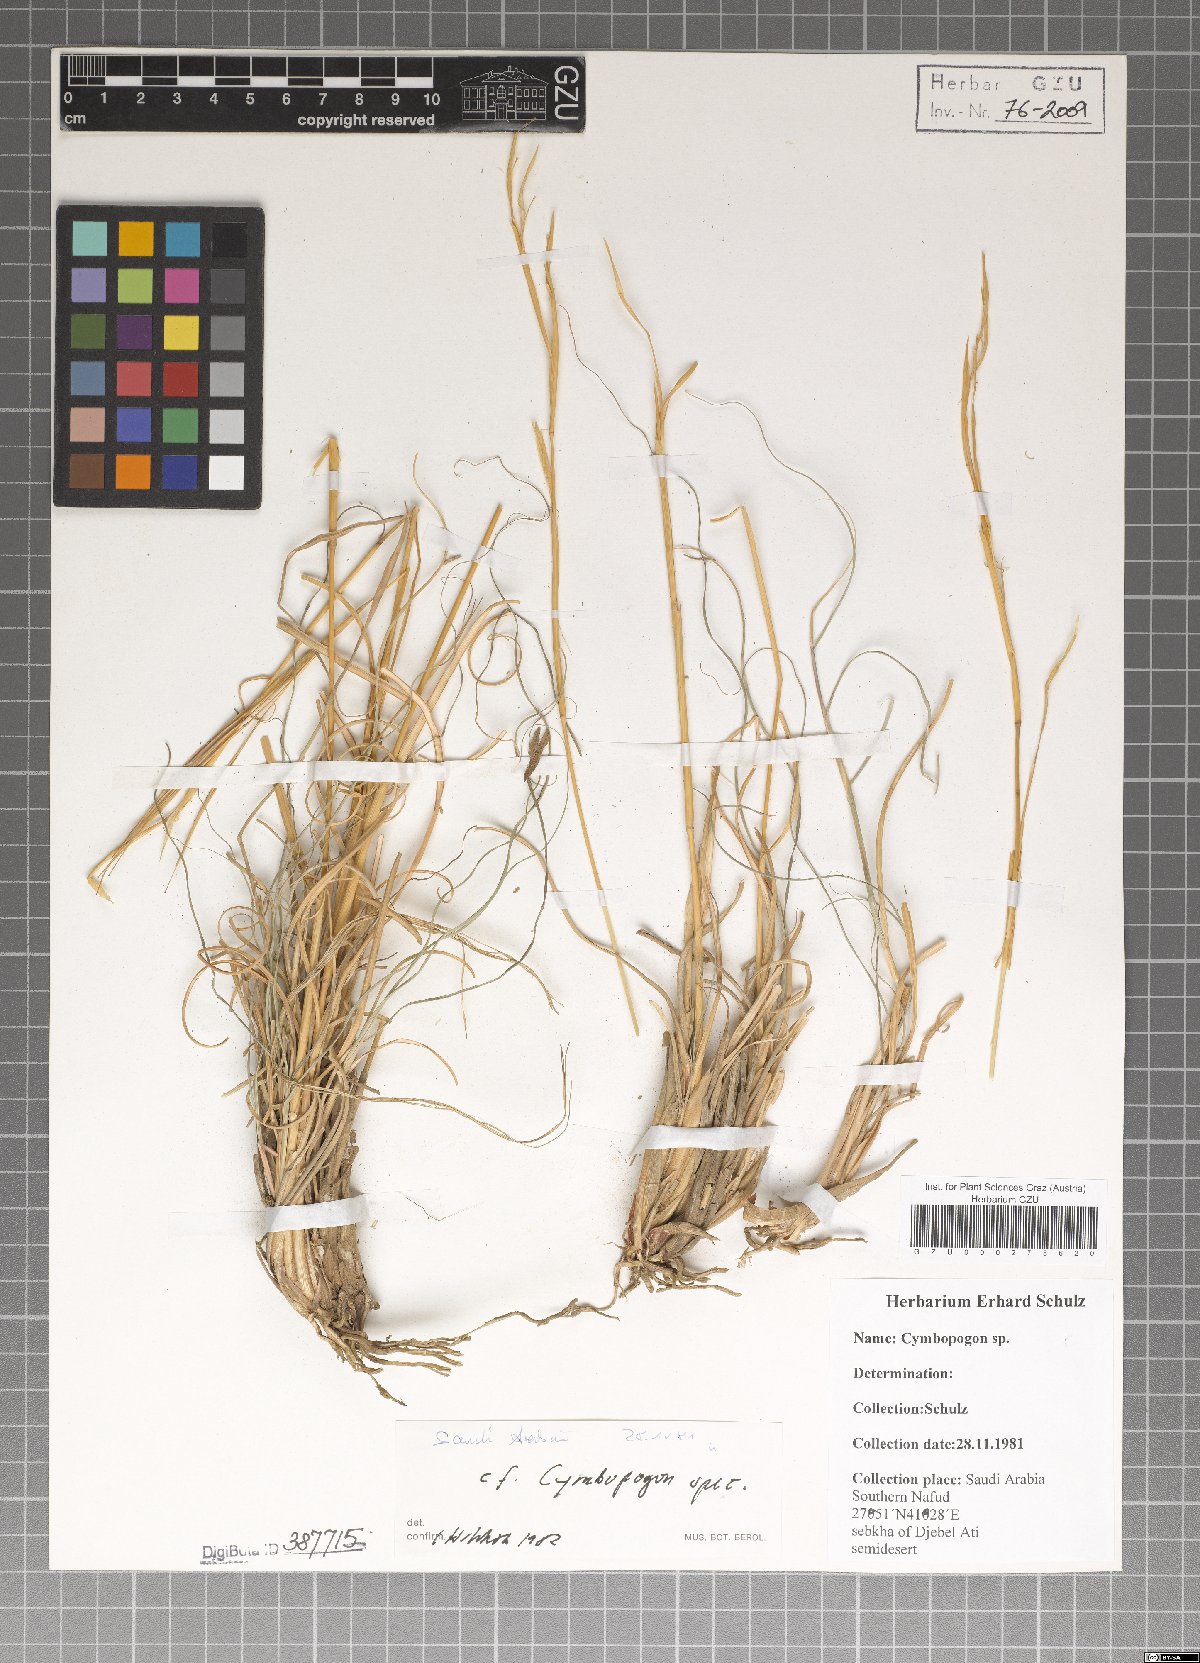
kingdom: Plantae
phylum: Tracheophyta
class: Liliopsida
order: Poales
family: Poaceae
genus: Cymbopogon
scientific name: Cymbopogon
